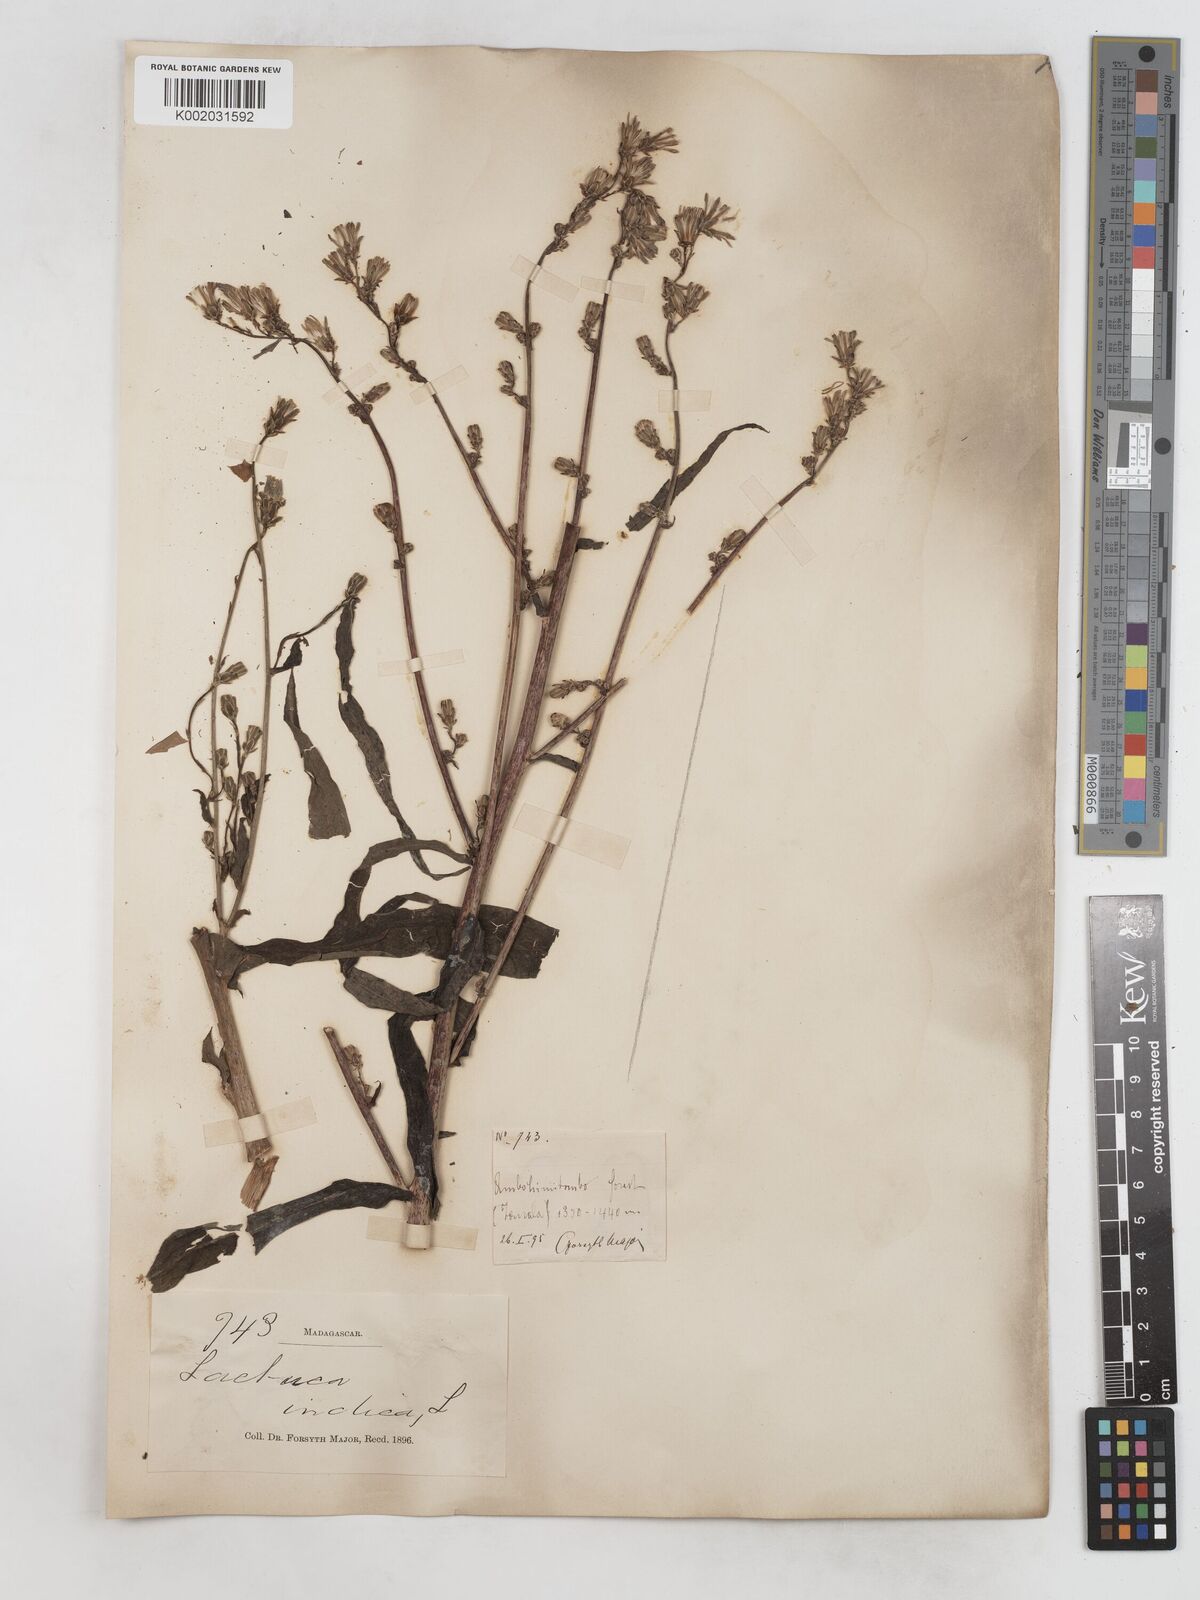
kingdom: Plantae
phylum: Tracheophyta
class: Magnoliopsida
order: Asterales
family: Asteraceae
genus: Lactuca
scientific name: Lactuca
